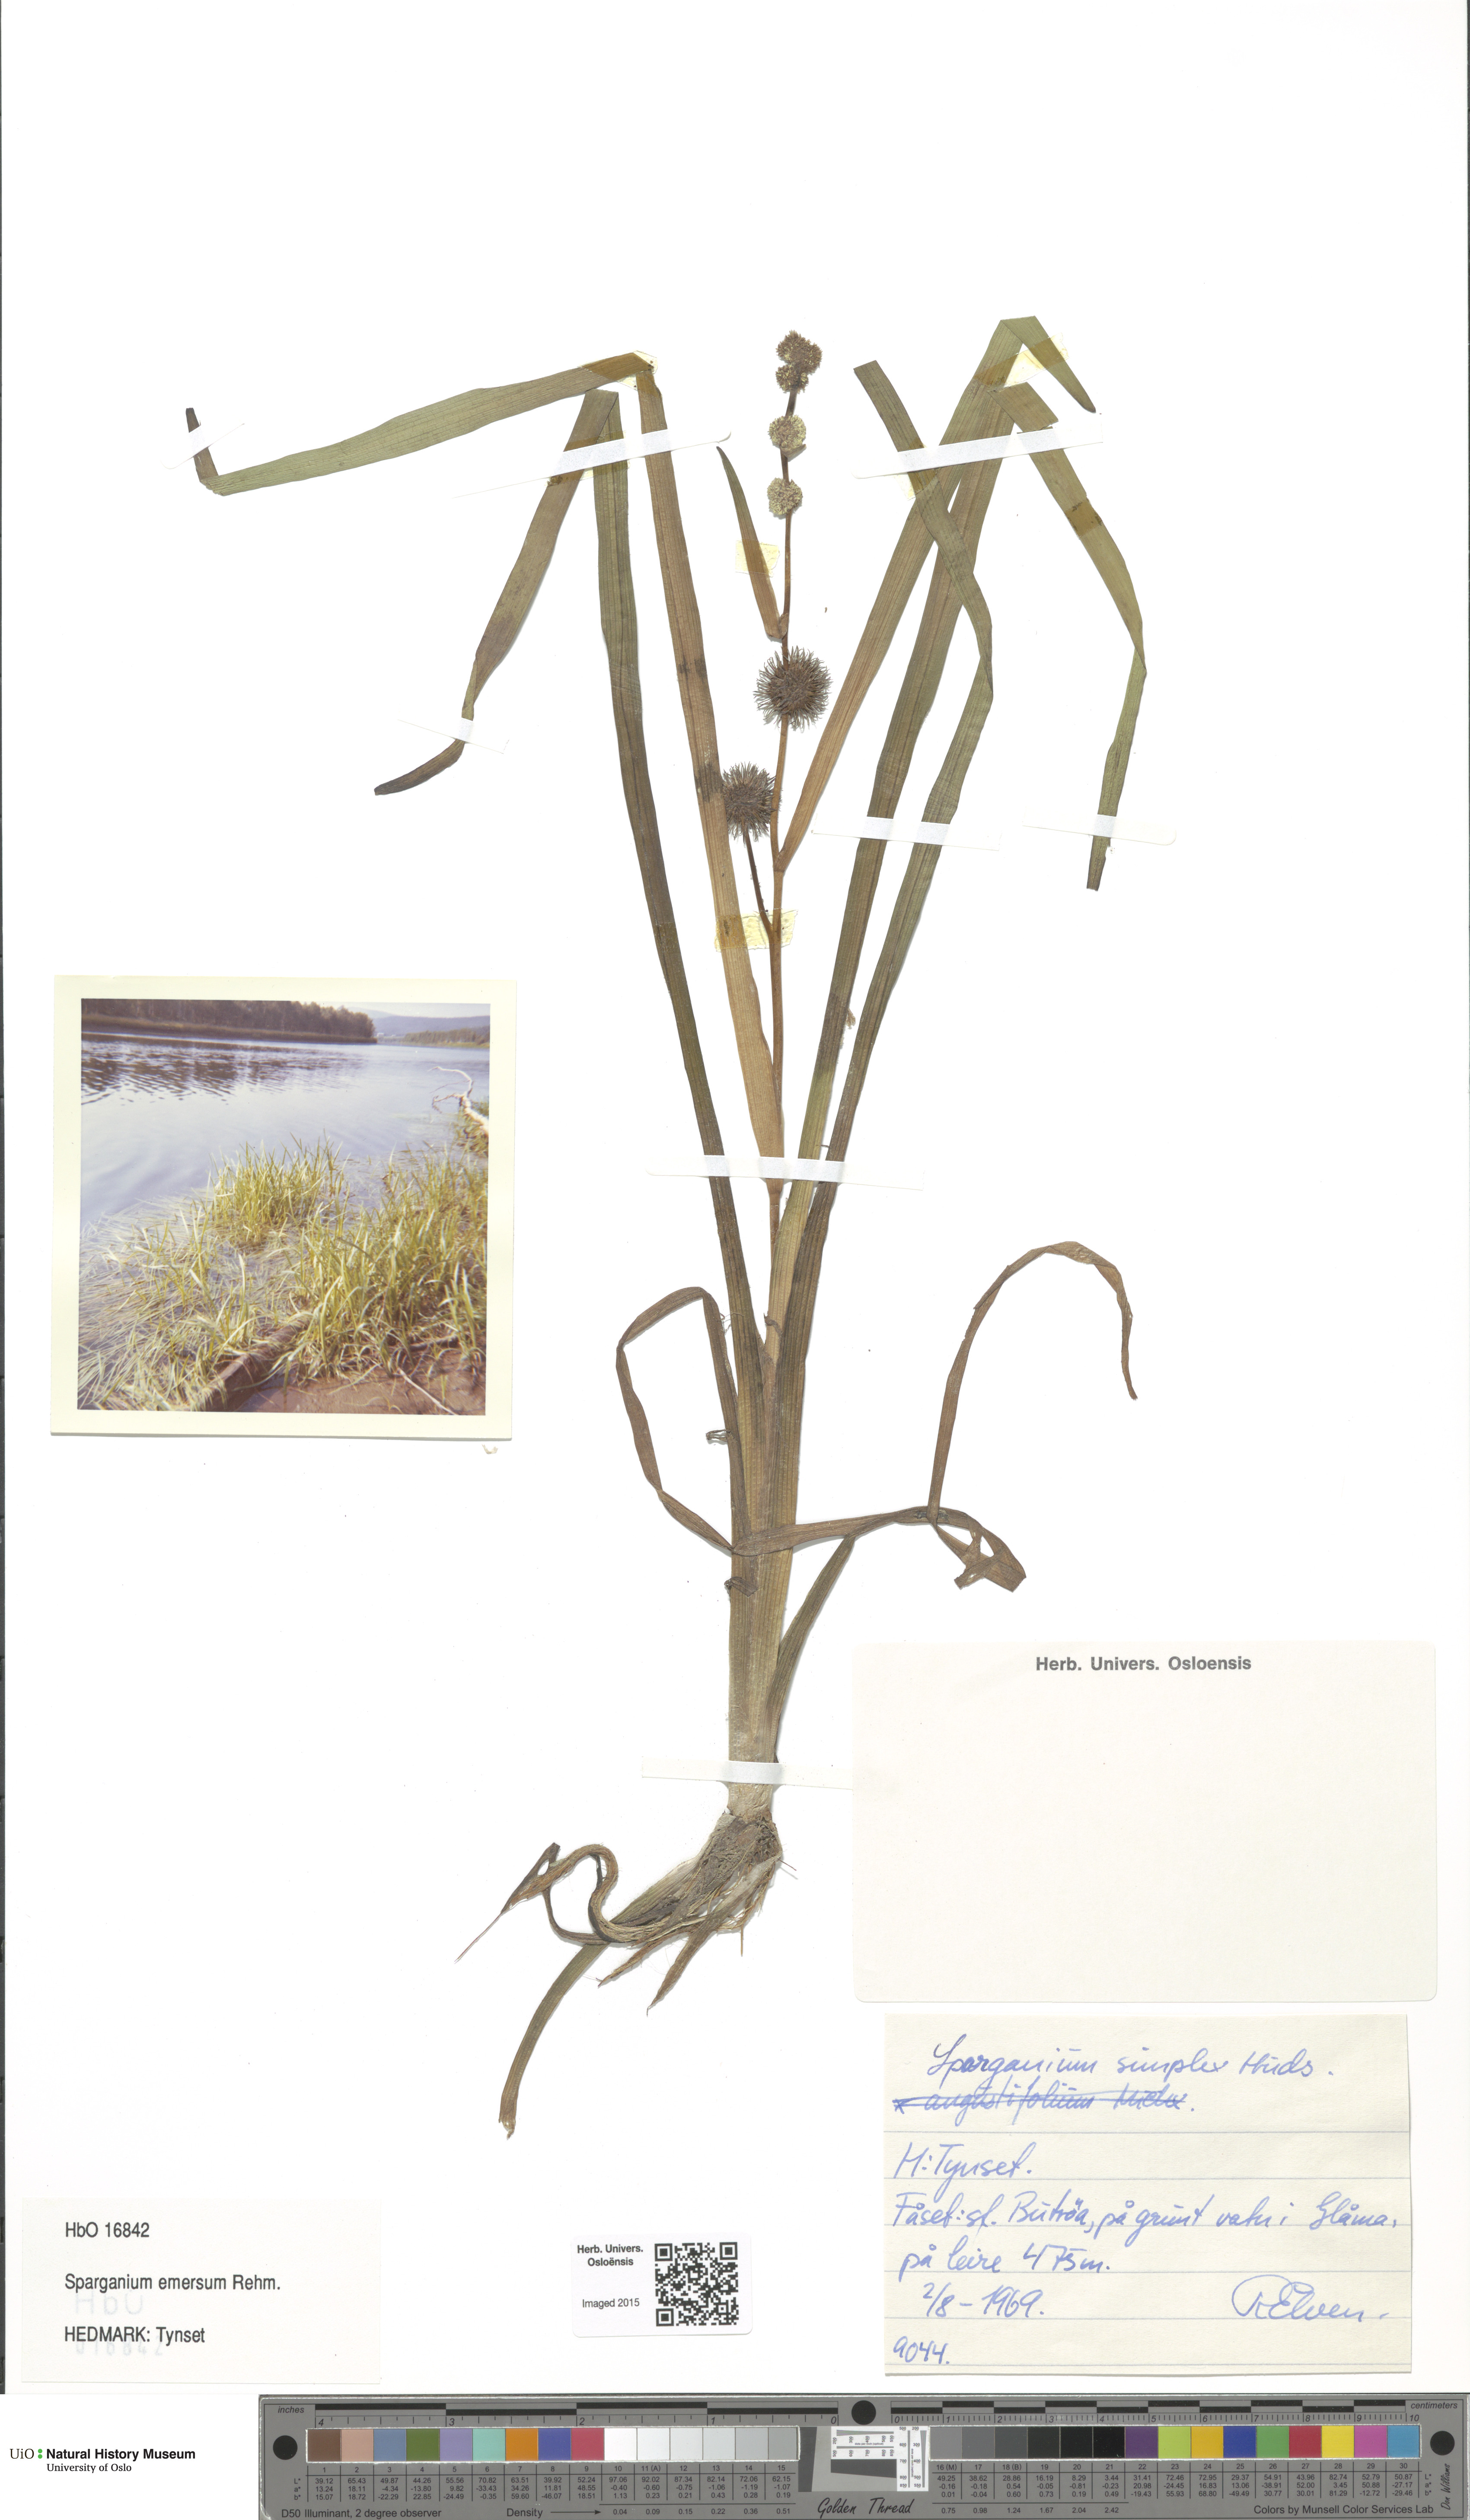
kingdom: Plantae
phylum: Tracheophyta
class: Liliopsida
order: Poales
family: Typhaceae
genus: Sparganium
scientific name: Sparganium emersum
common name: Unbranched bur-reed
